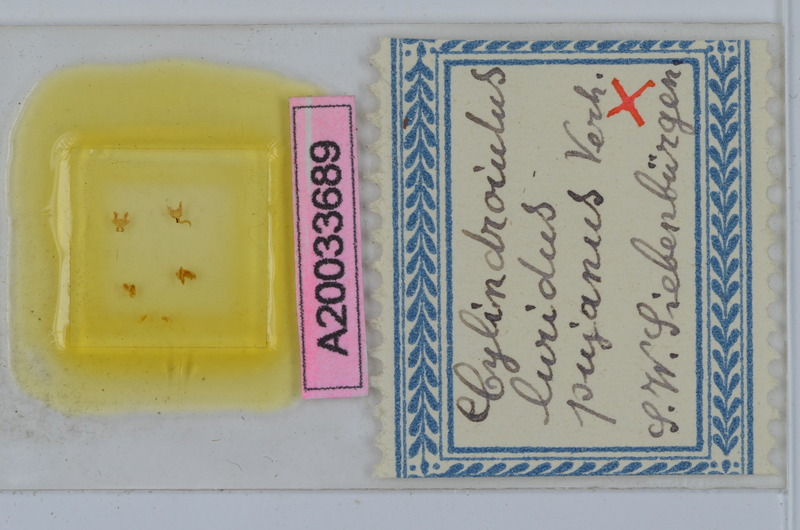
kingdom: Animalia
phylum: Arthropoda
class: Diplopoda
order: Julida
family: Julidae
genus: Cylindroiulus
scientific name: Cylindroiulus luridus
